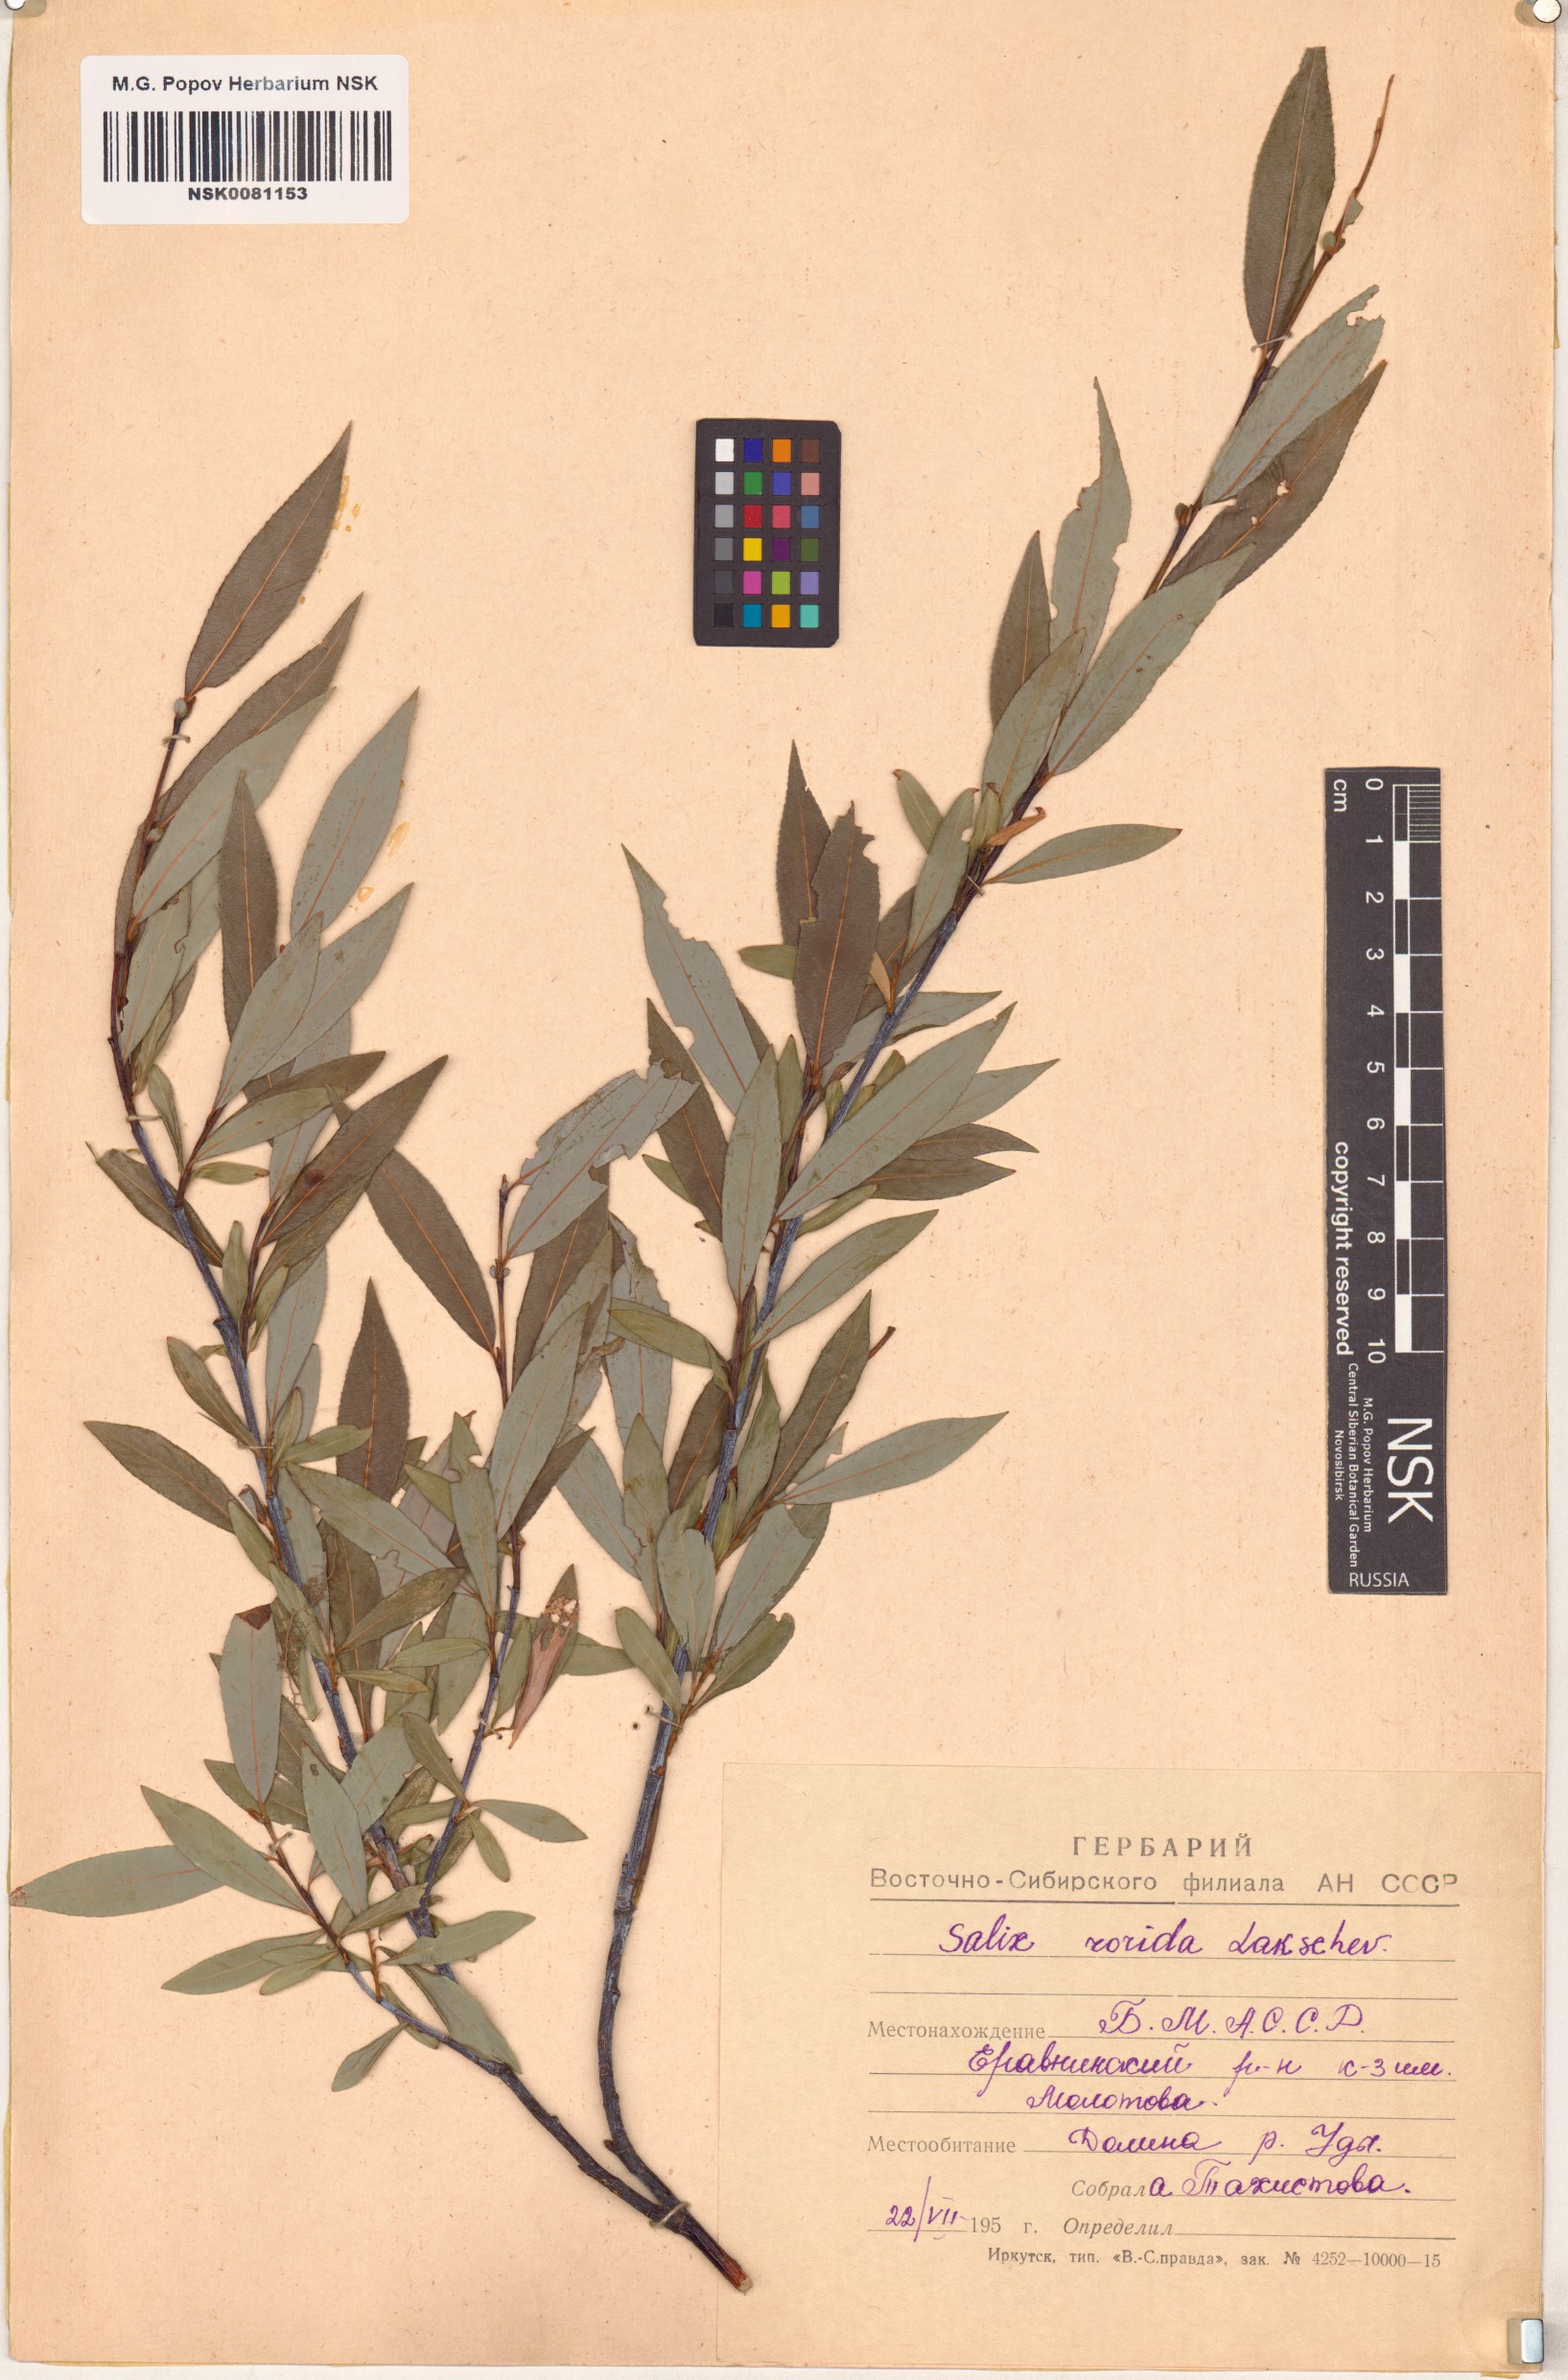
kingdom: Plantae
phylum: Tracheophyta
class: Magnoliopsida
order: Malpighiales
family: Salicaceae
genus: Salix
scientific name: Salix rorida
